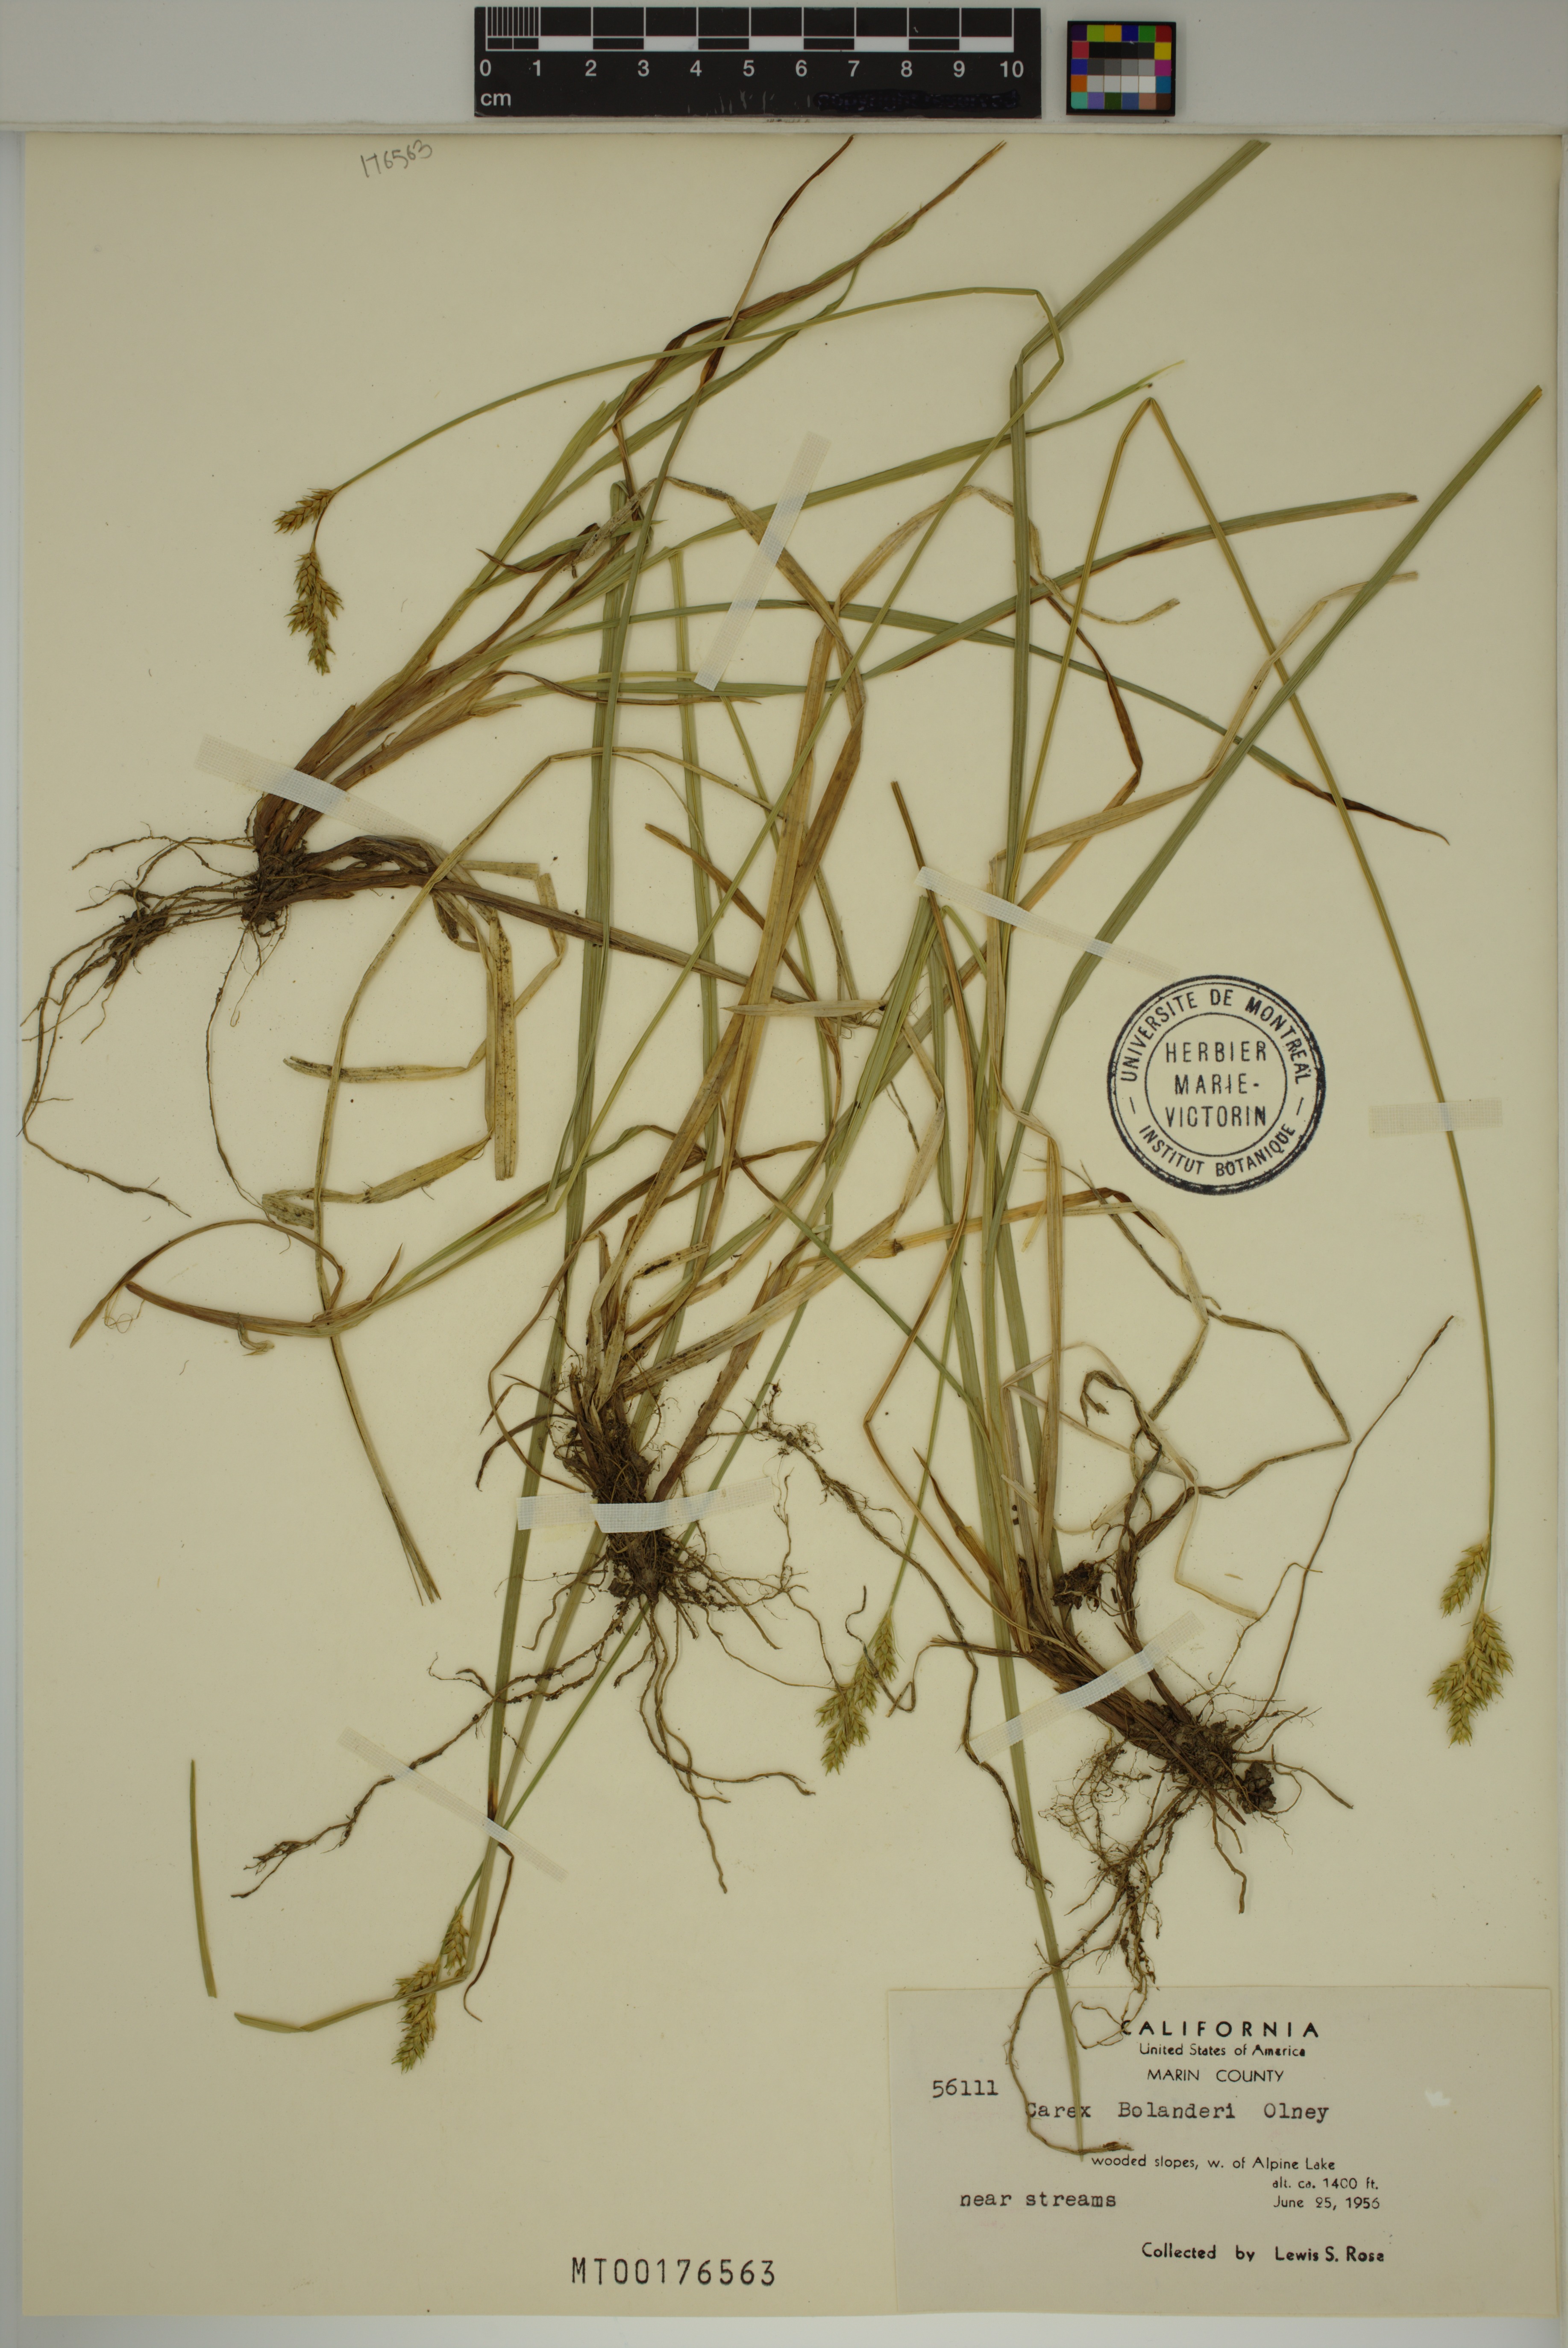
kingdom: Plantae
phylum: Tracheophyta
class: Liliopsida
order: Poales
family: Cyperaceae
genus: Carex
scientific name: Carex bolanderi
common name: Bolander's sedge
